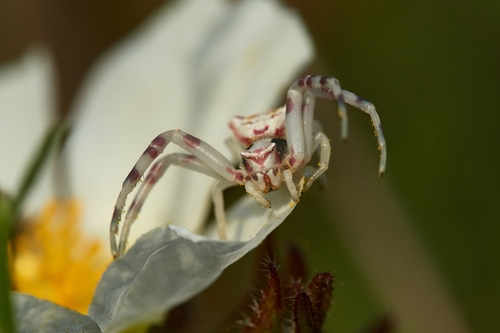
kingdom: Animalia
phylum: Arthropoda
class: Arachnida
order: Araneae
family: Thomisidae
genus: Thomisus
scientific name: Thomisus onustus
